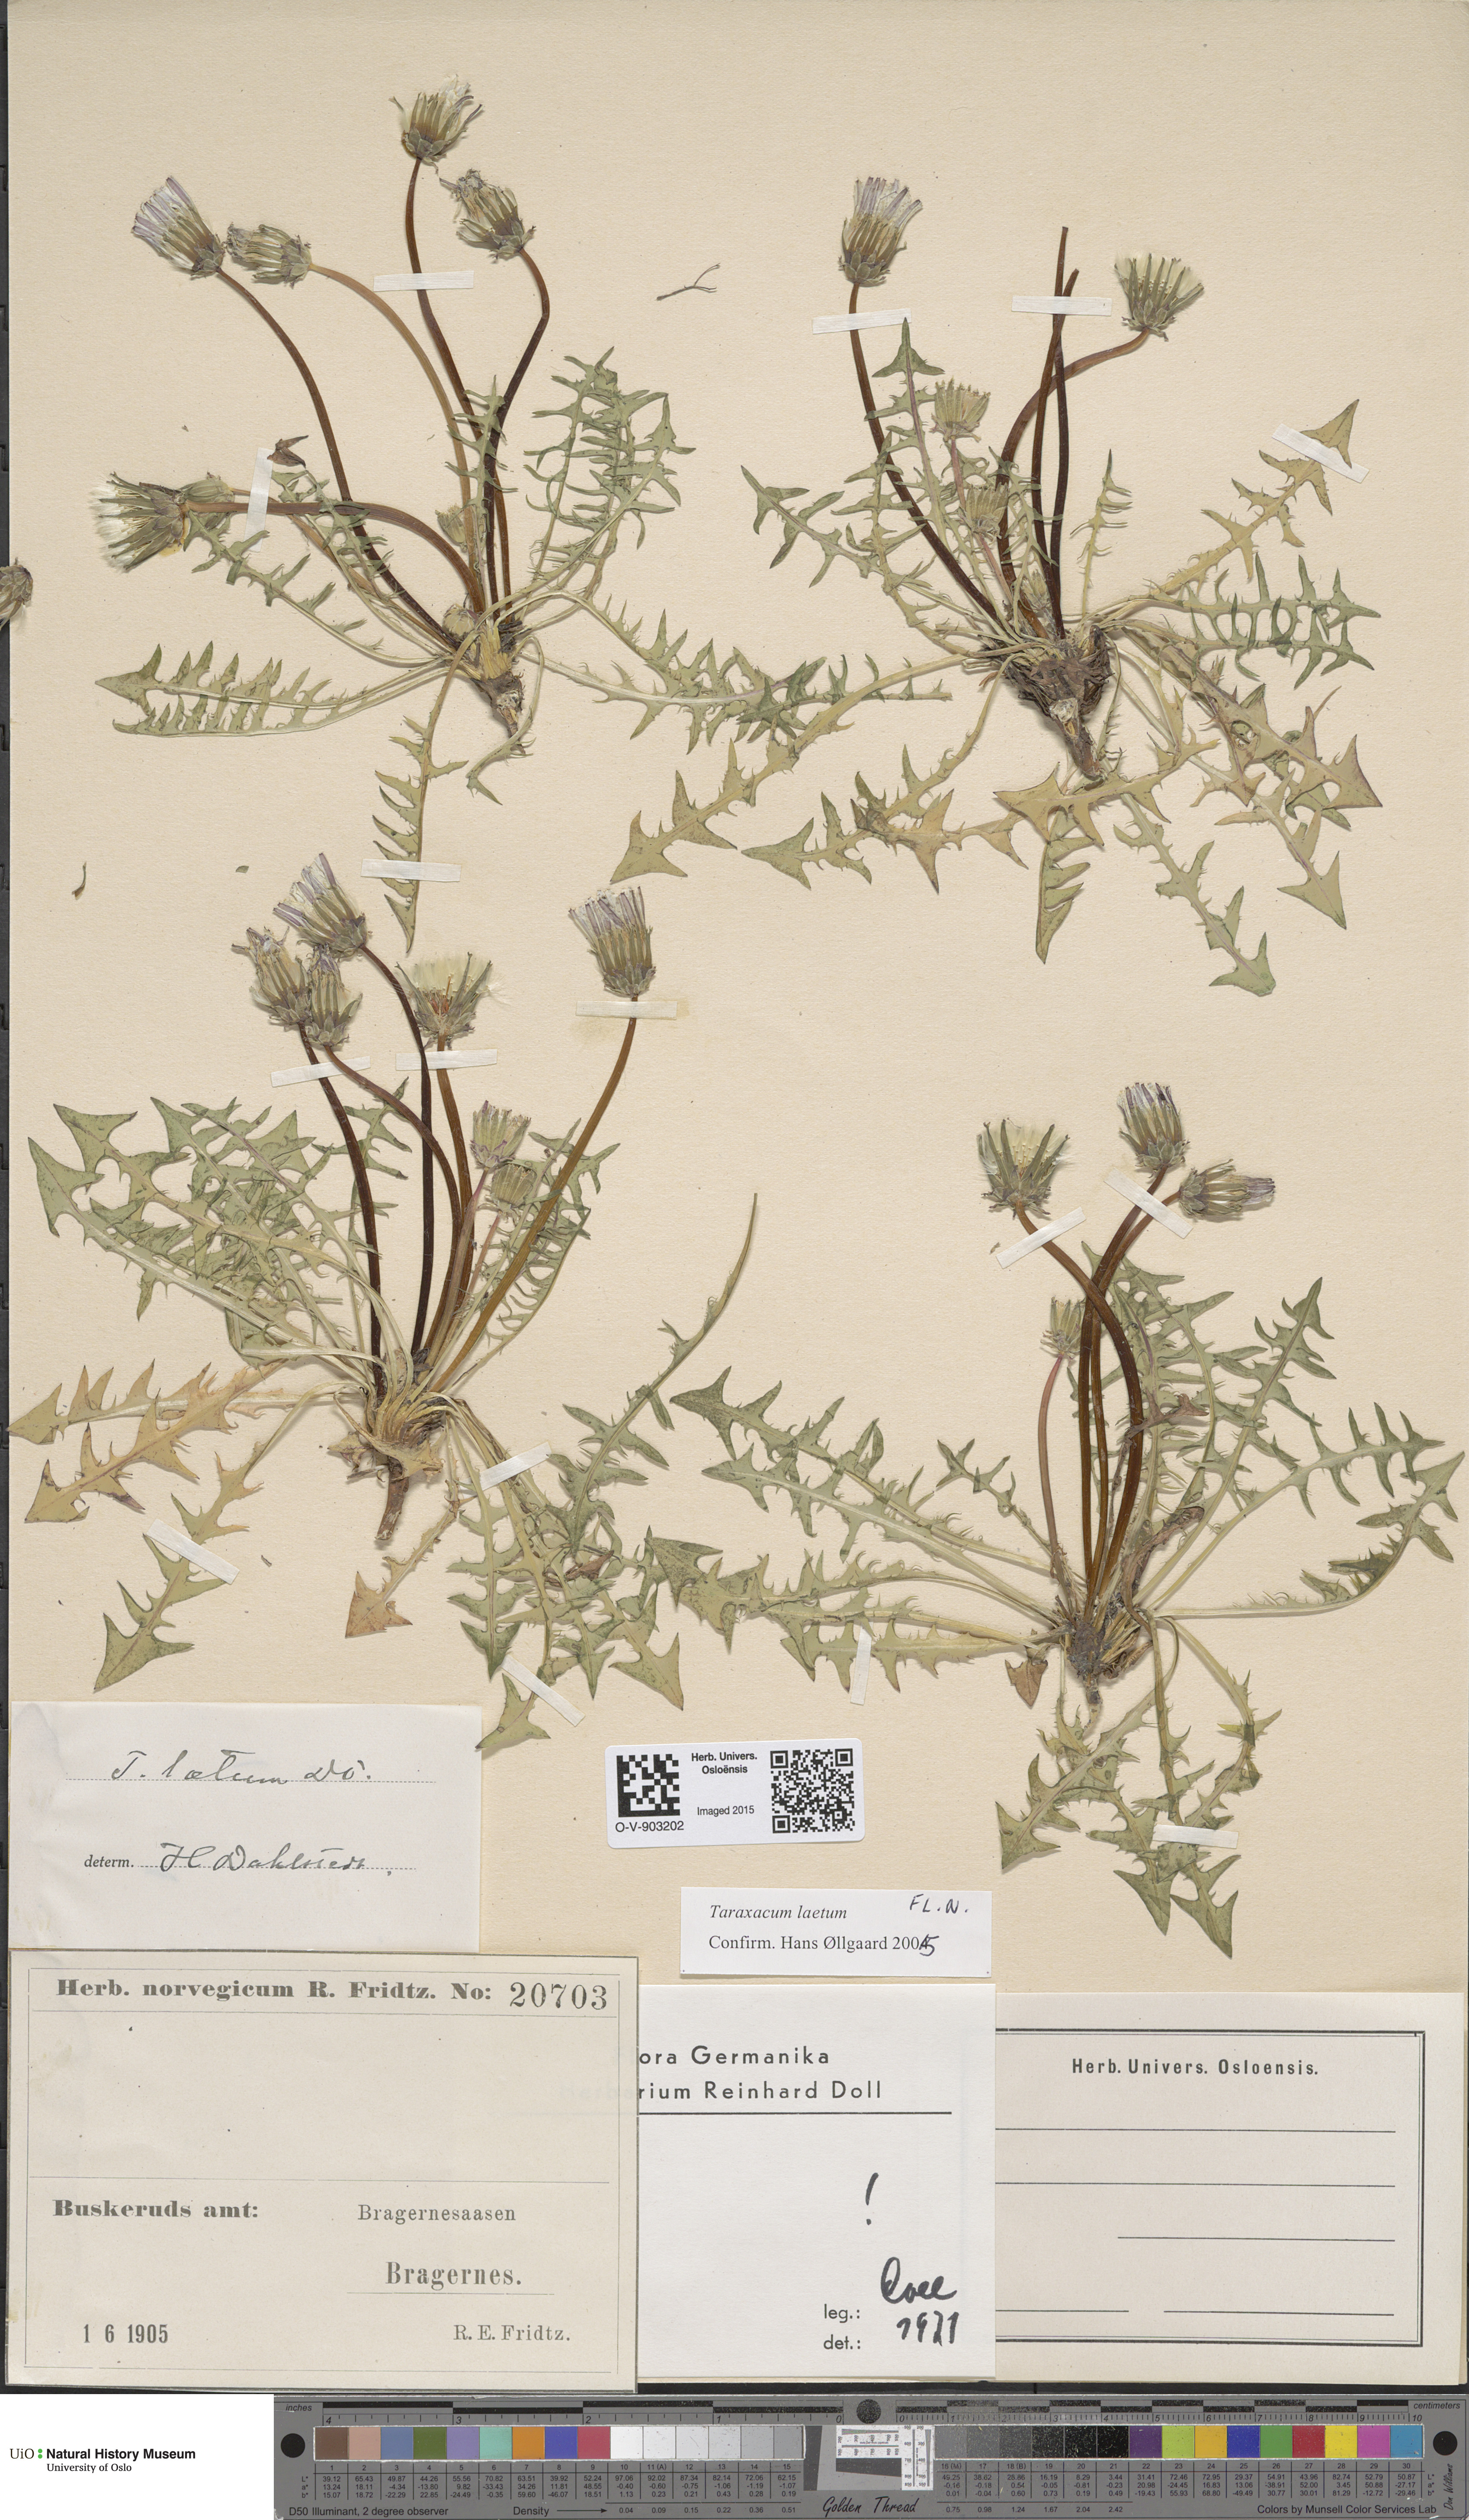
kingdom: Plantae
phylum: Tracheophyta
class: Magnoliopsida
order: Asterales
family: Asteraceae
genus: Taraxacum
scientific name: Taraxacum laetum
